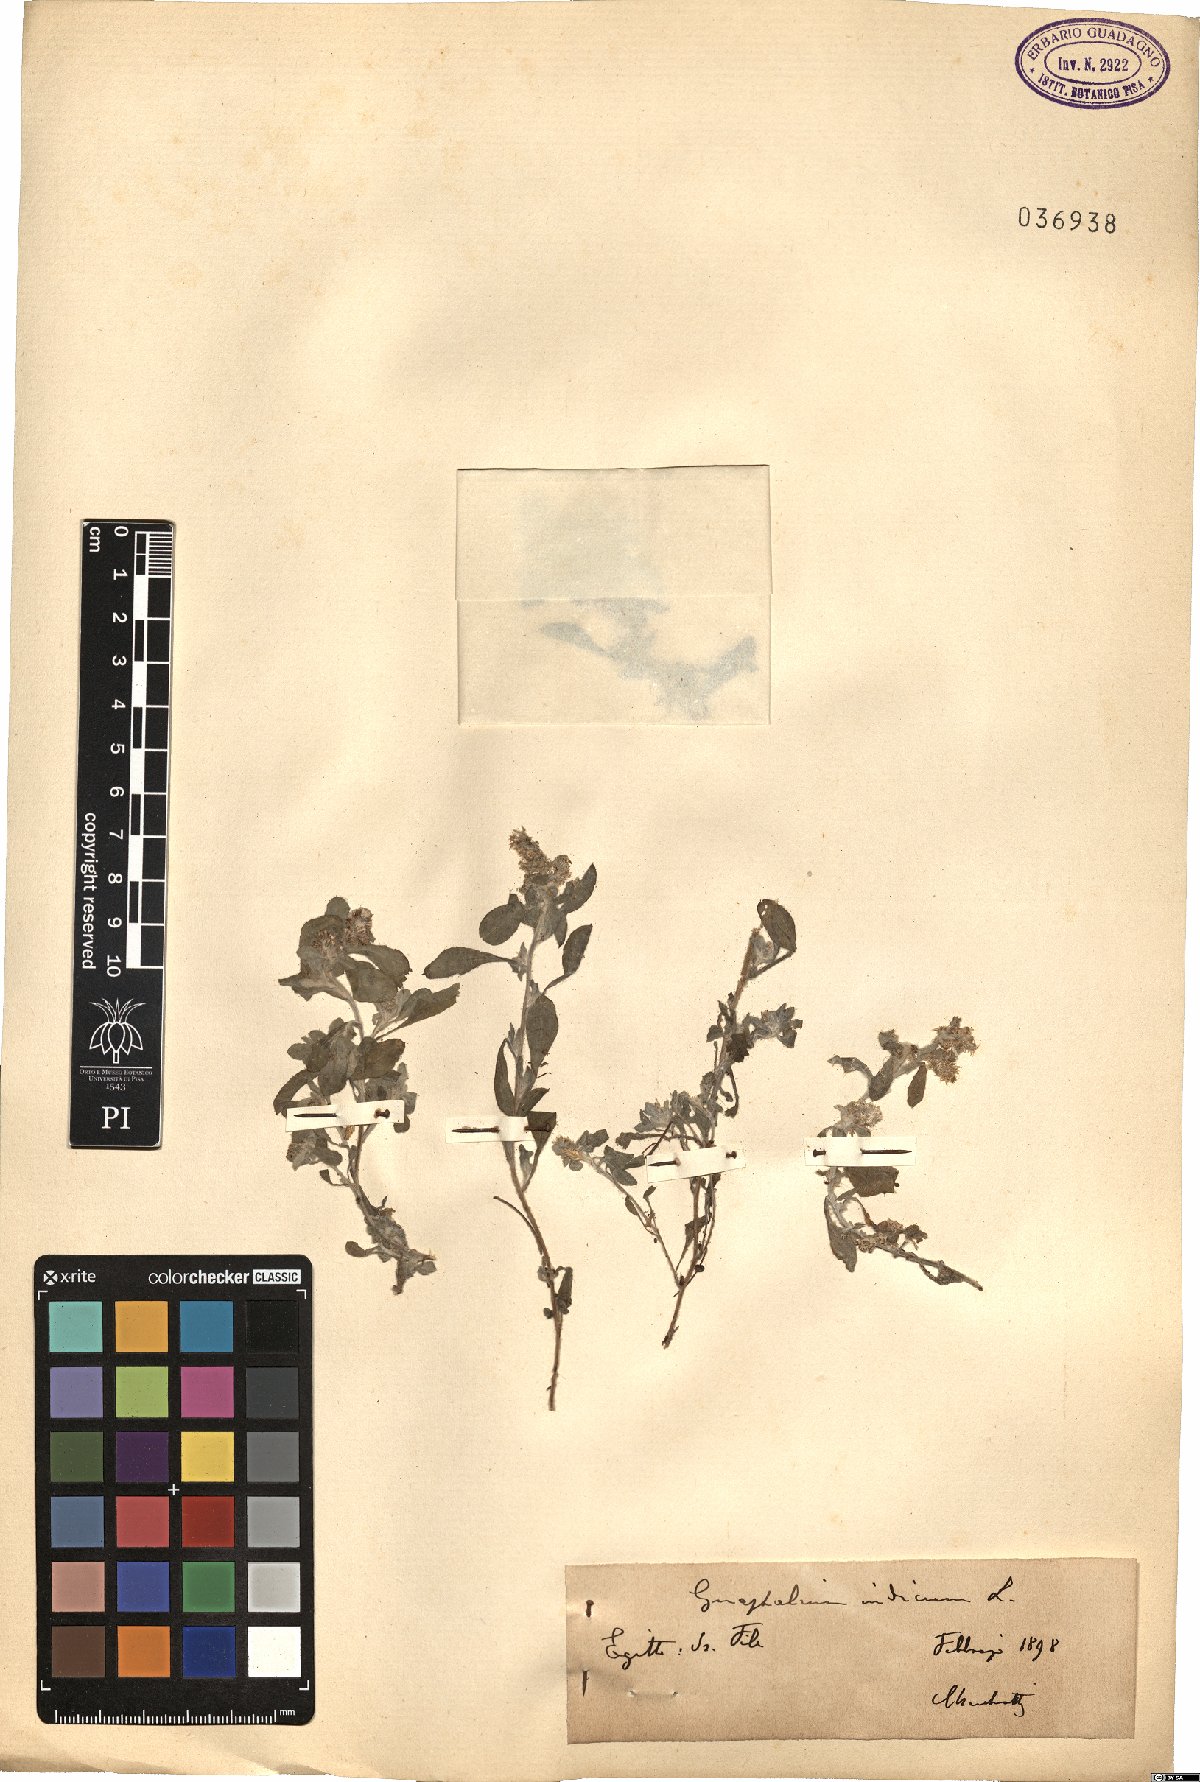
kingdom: Plantae
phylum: Tracheophyta
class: Magnoliopsida
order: Asterales
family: Asteraceae
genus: Helichrysum
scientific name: Helichrysum indicum
